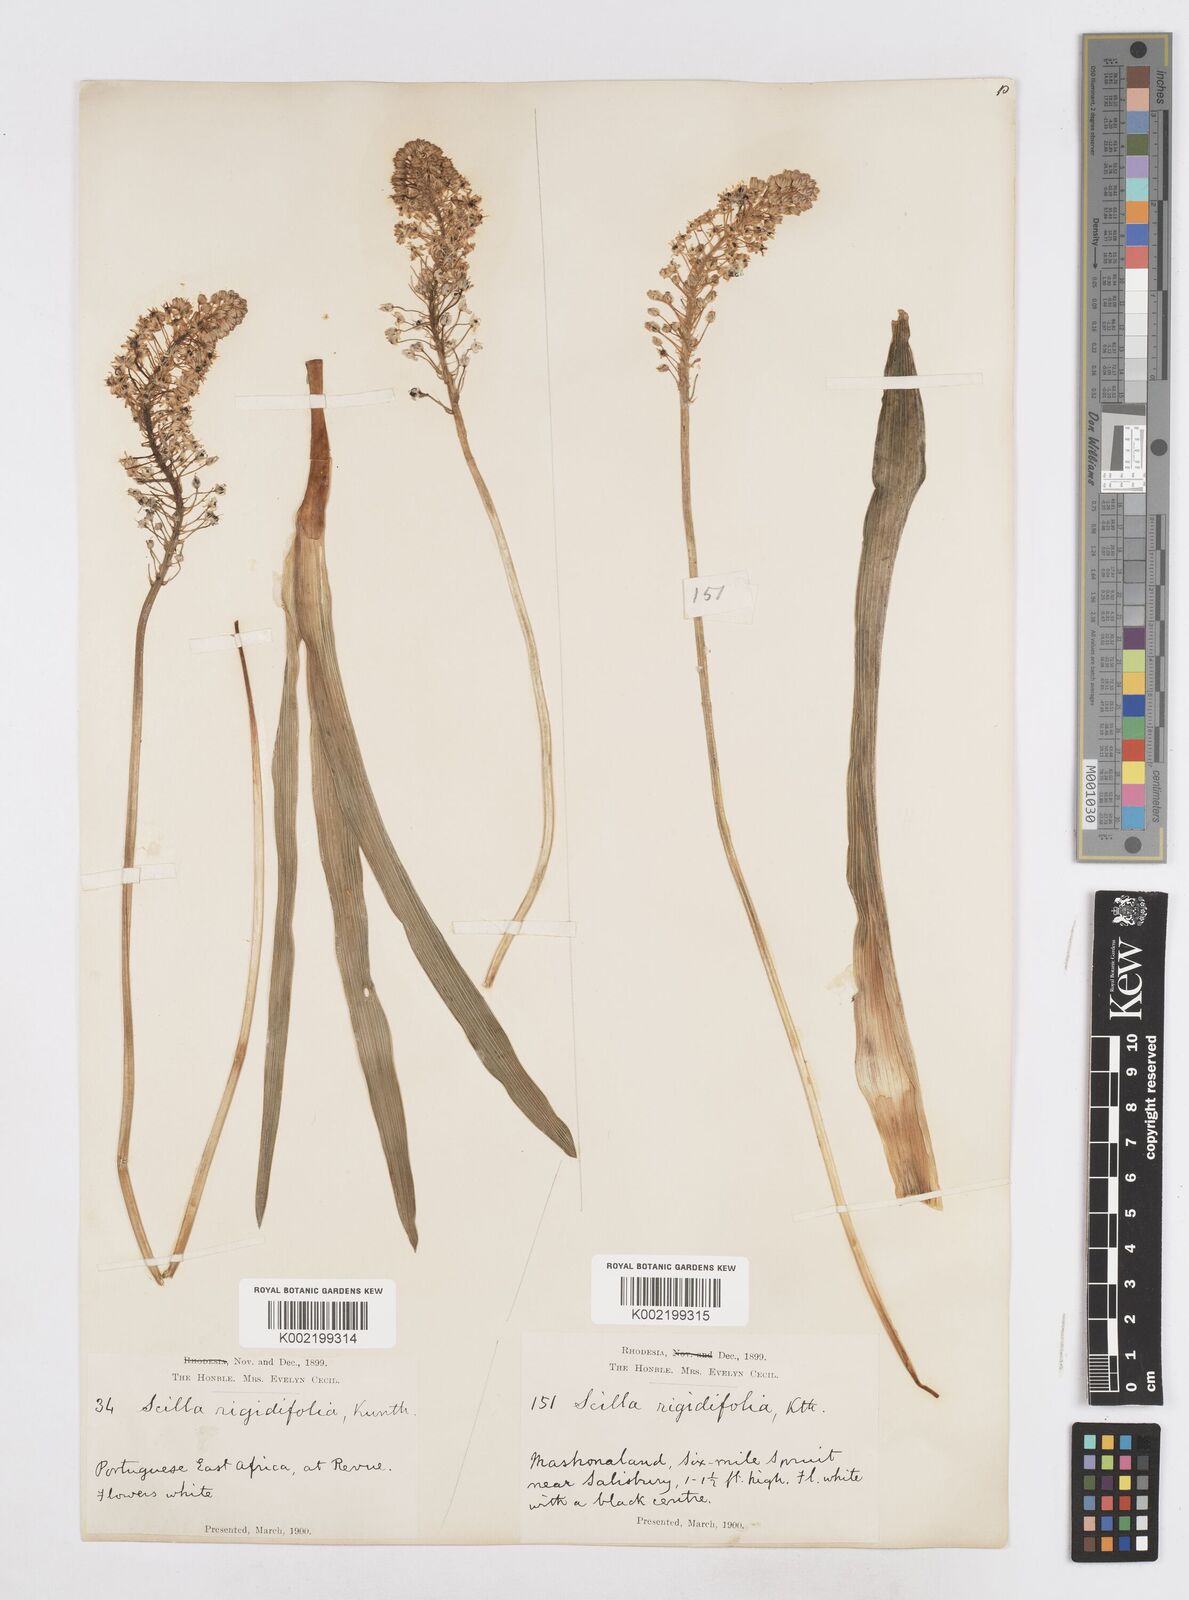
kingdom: Plantae
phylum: Tracheophyta
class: Liliopsida
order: Asparagales
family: Asparagaceae
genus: Schizocarphus
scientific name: Schizocarphus nervosus
